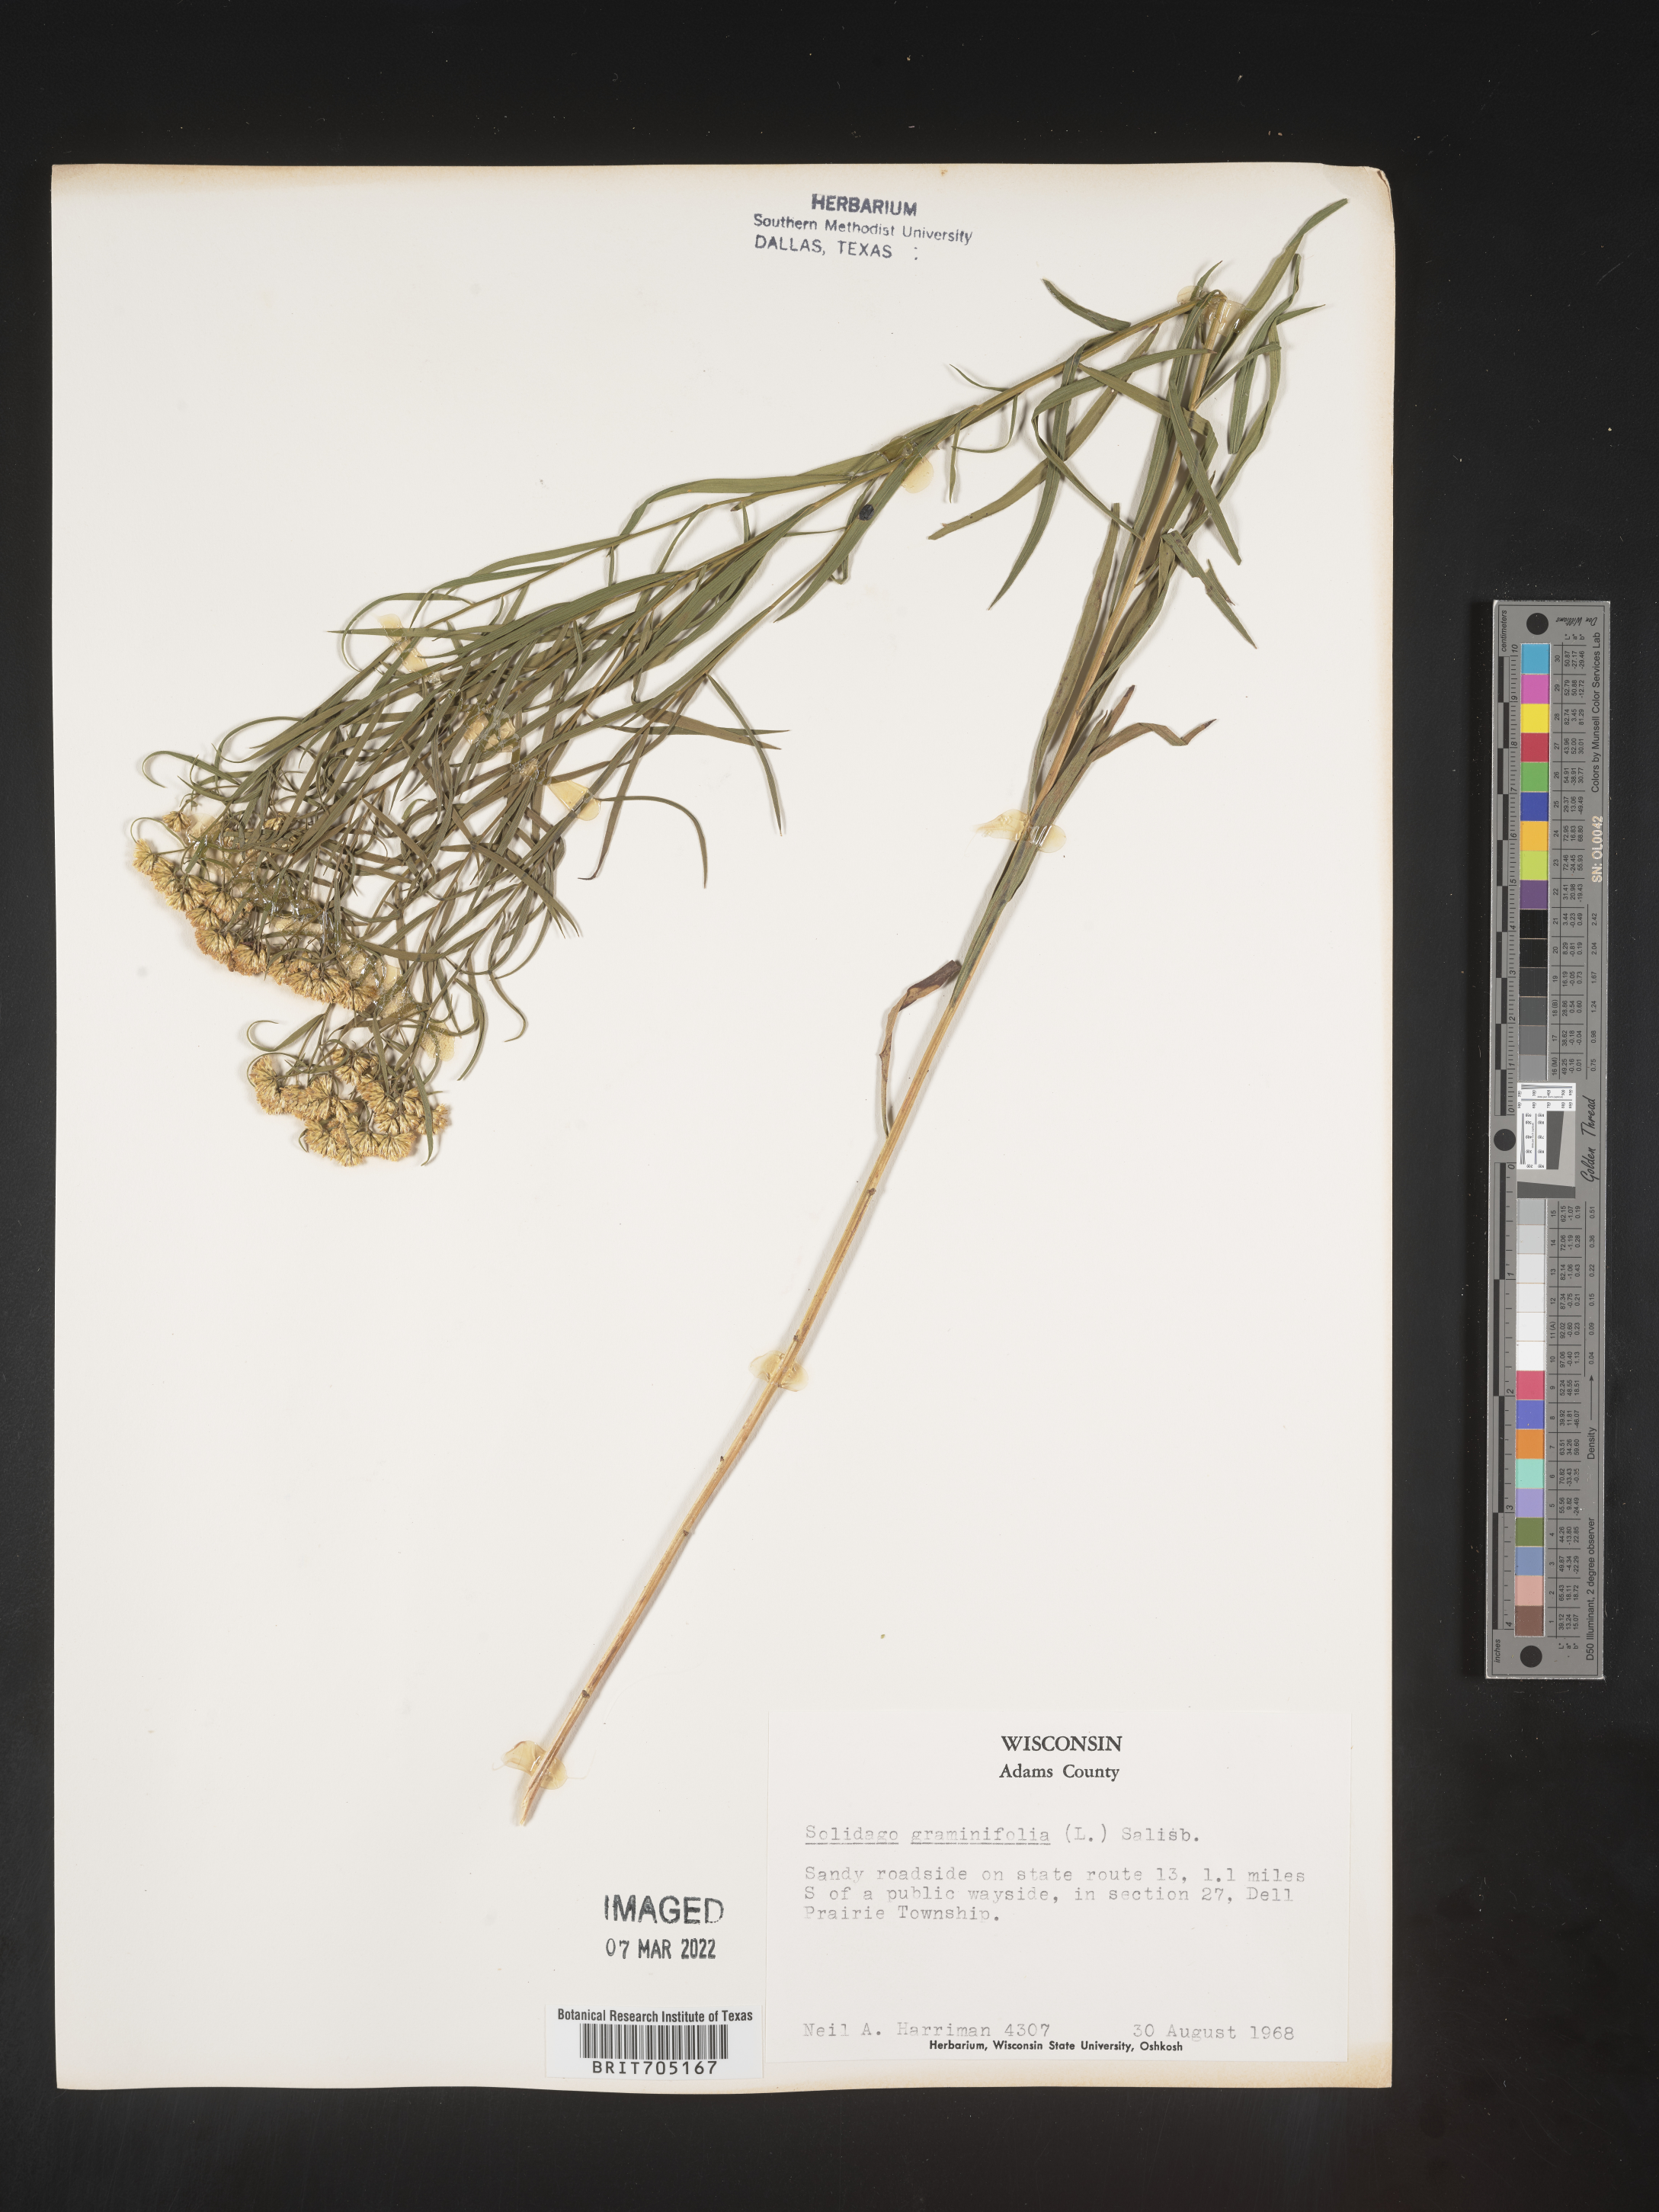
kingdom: Plantae
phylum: Tracheophyta
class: Magnoliopsida
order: Asterales
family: Asteraceae
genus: Euthamia
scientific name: Euthamia graminifolia
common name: Common goldentop
